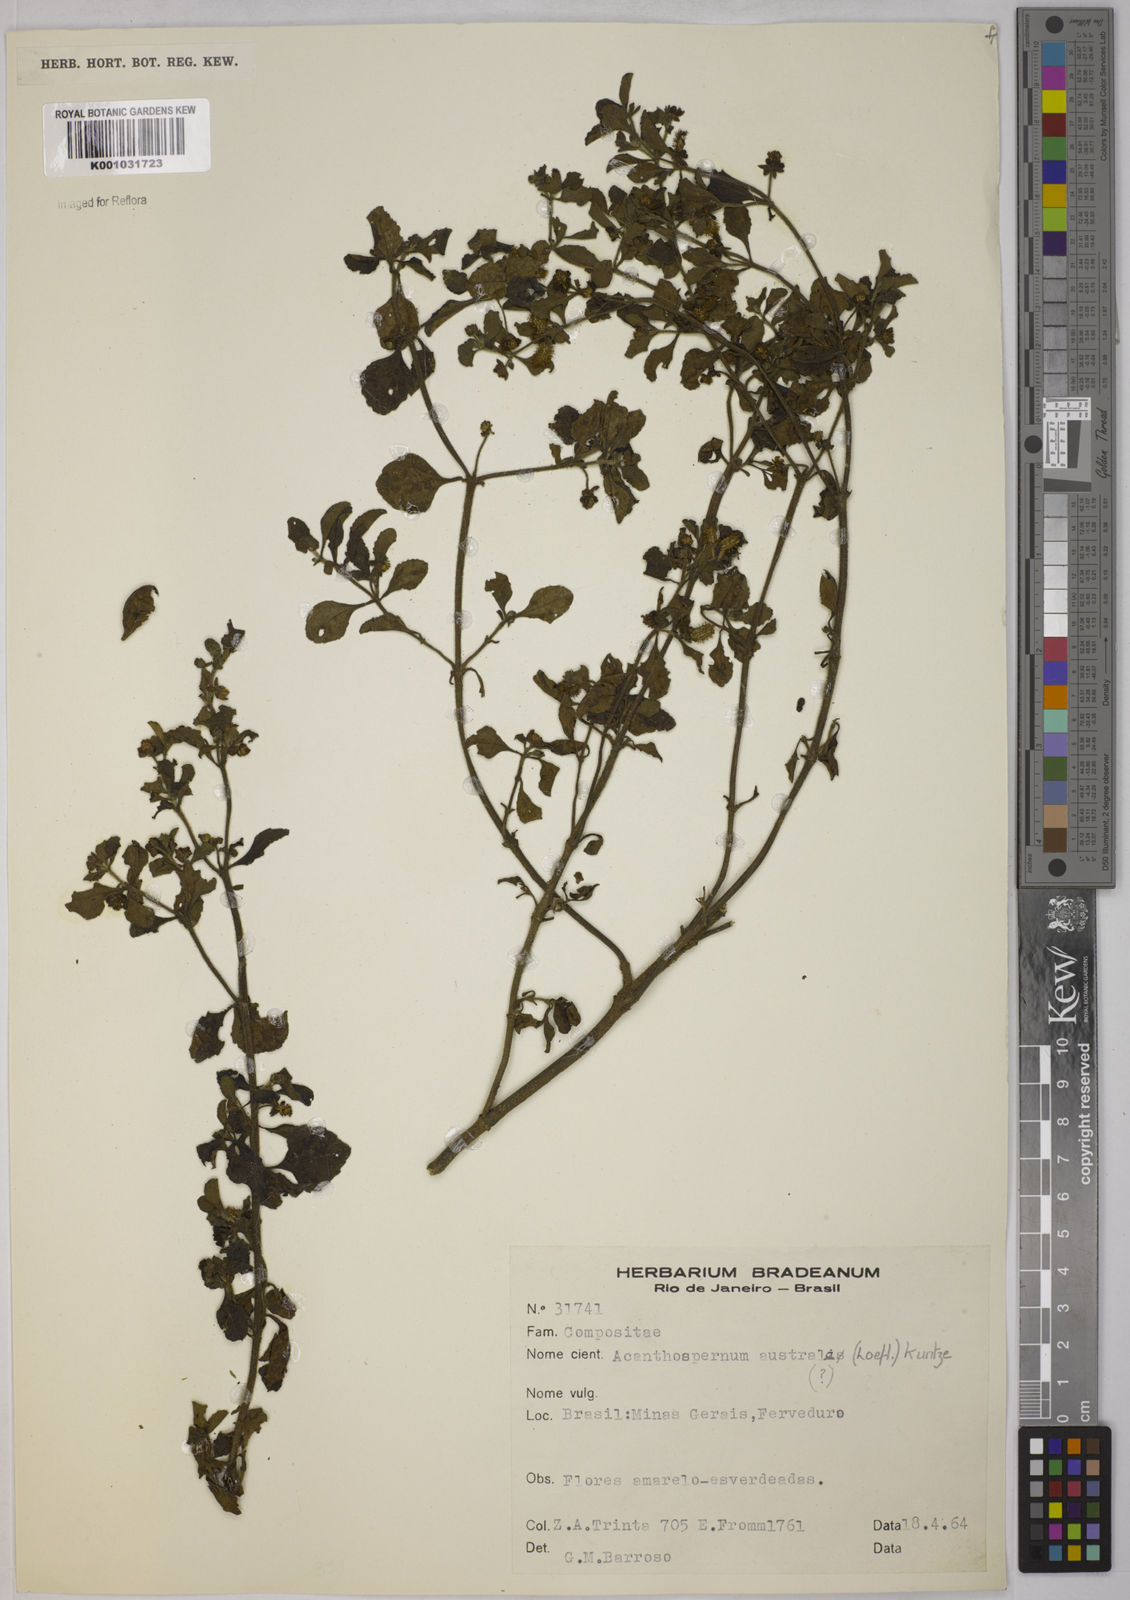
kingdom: Plantae
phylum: Tracheophyta
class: Magnoliopsida
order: Asterales
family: Asteraceae
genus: Acanthospermum
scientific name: Acanthospermum australe
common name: Paraguayan starbur
